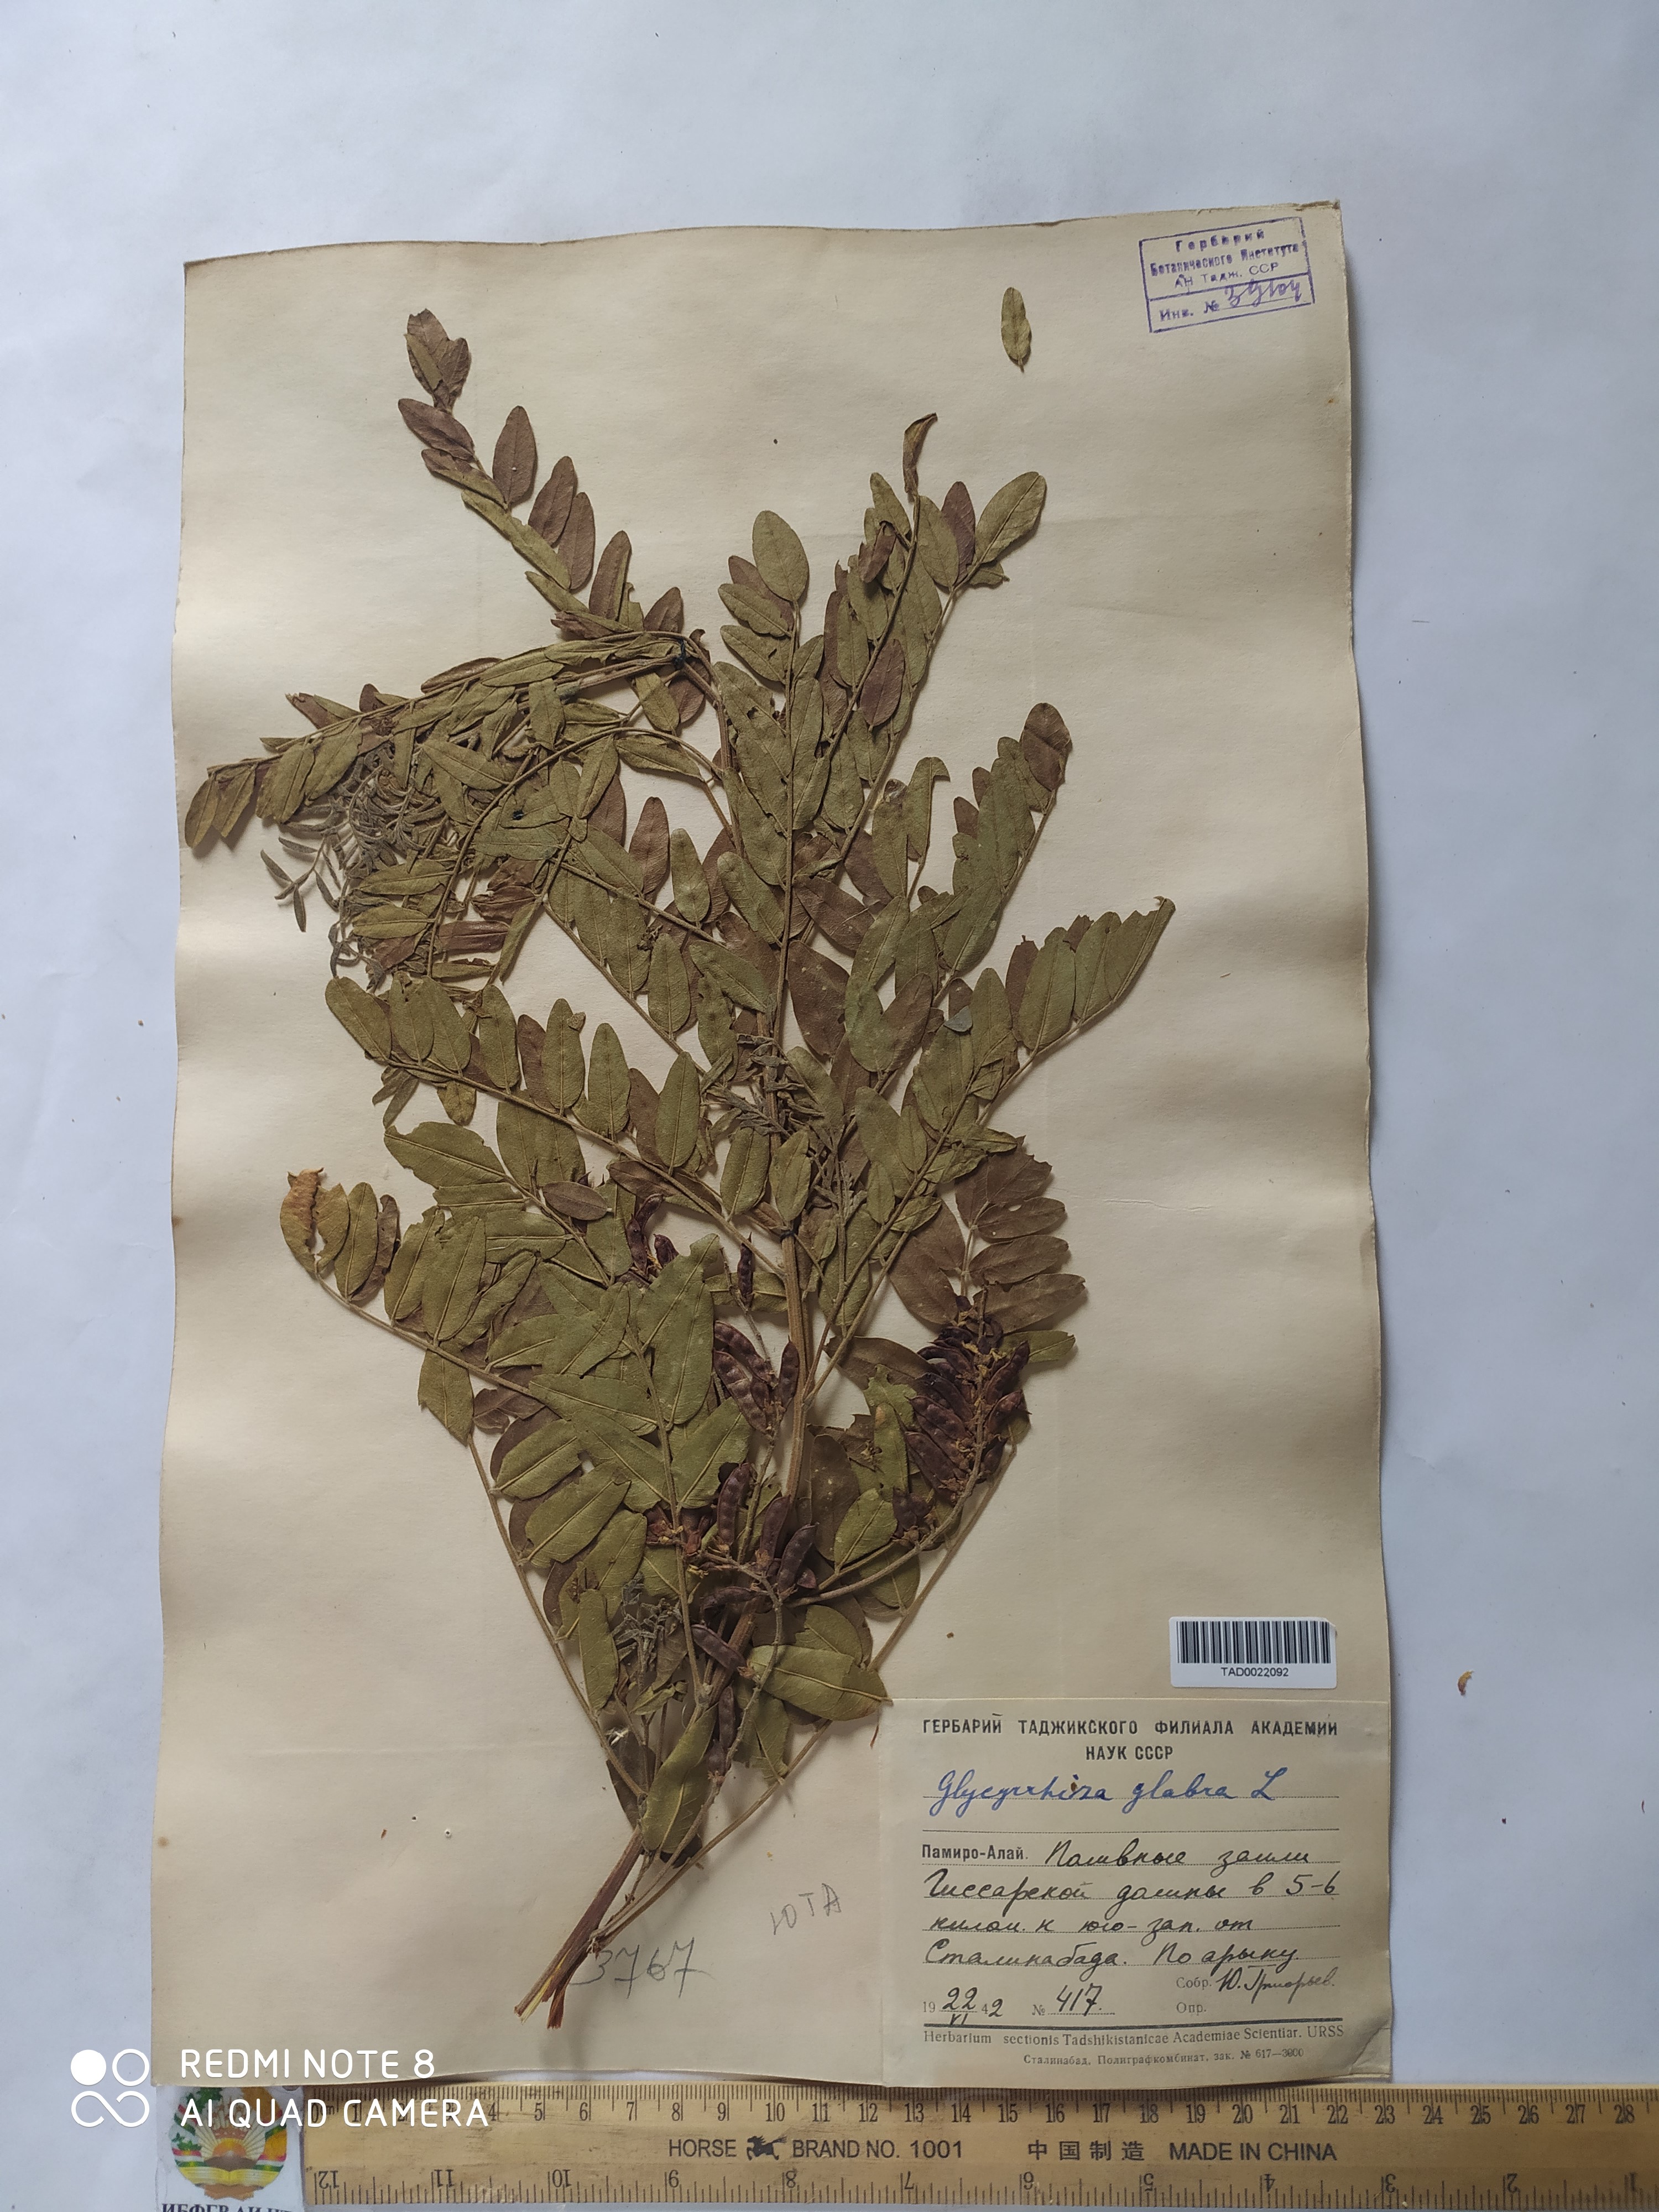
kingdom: Plantae
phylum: Tracheophyta
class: Magnoliopsida
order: Fabales
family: Fabaceae
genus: Glycyrrhiza
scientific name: Glycyrrhiza glabra
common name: Liquorice
